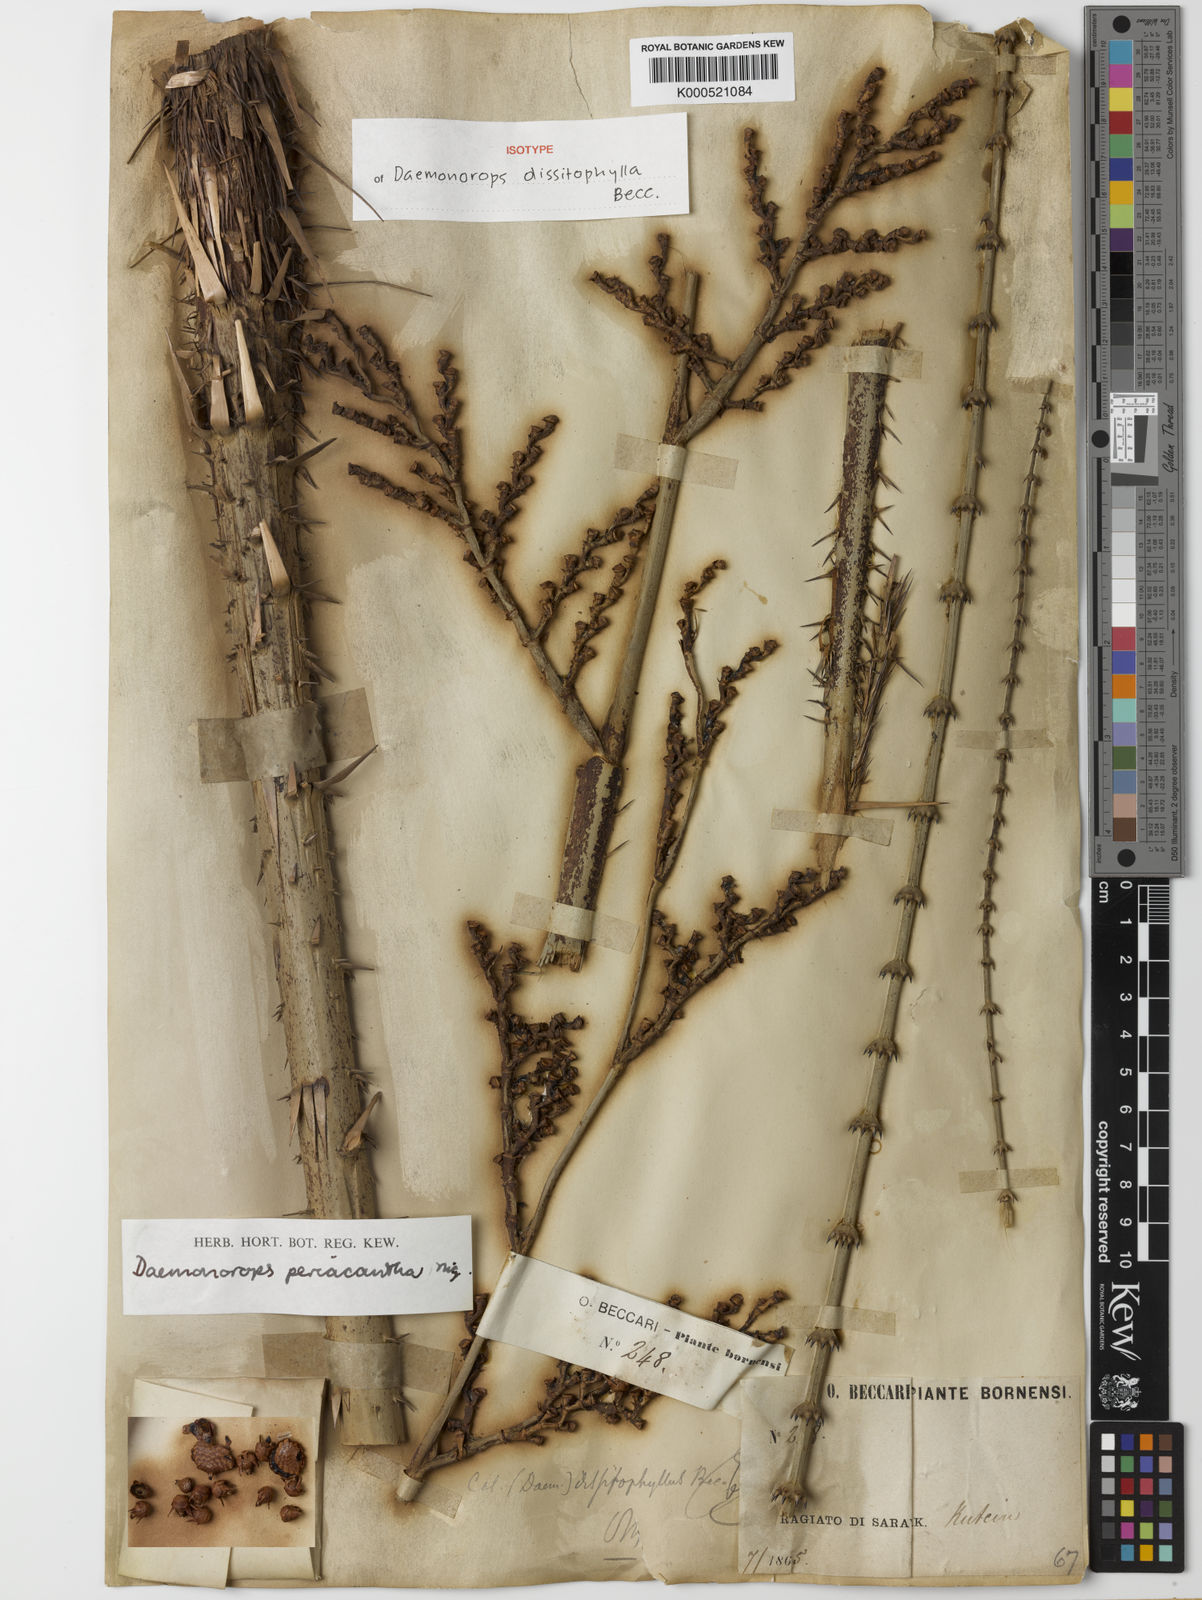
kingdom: Plantae
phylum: Tracheophyta
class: Liliopsida
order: Arecales
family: Arecaceae
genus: Calamus
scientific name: Calamus periacanthus
